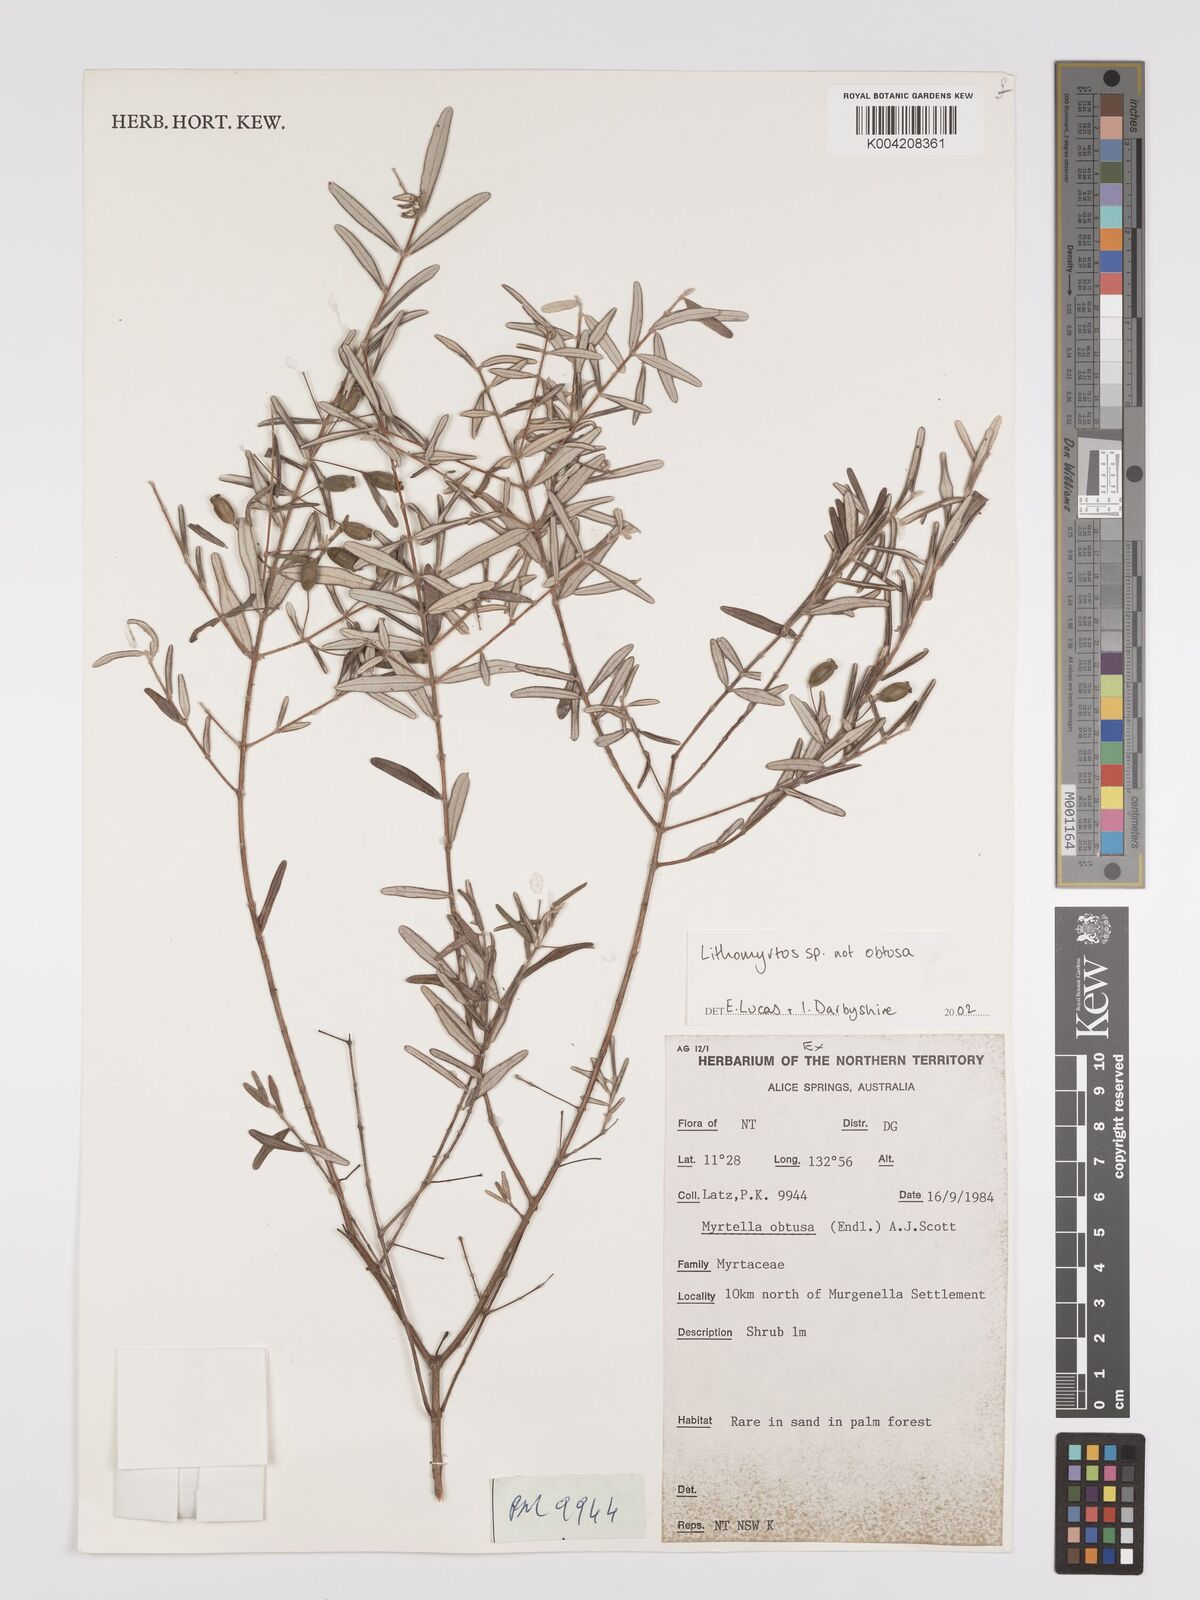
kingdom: Plantae
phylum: Tracheophyta
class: Magnoliopsida
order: Myrtales
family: Myrtaceae
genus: Lithomyrtus
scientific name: Lithomyrtus
